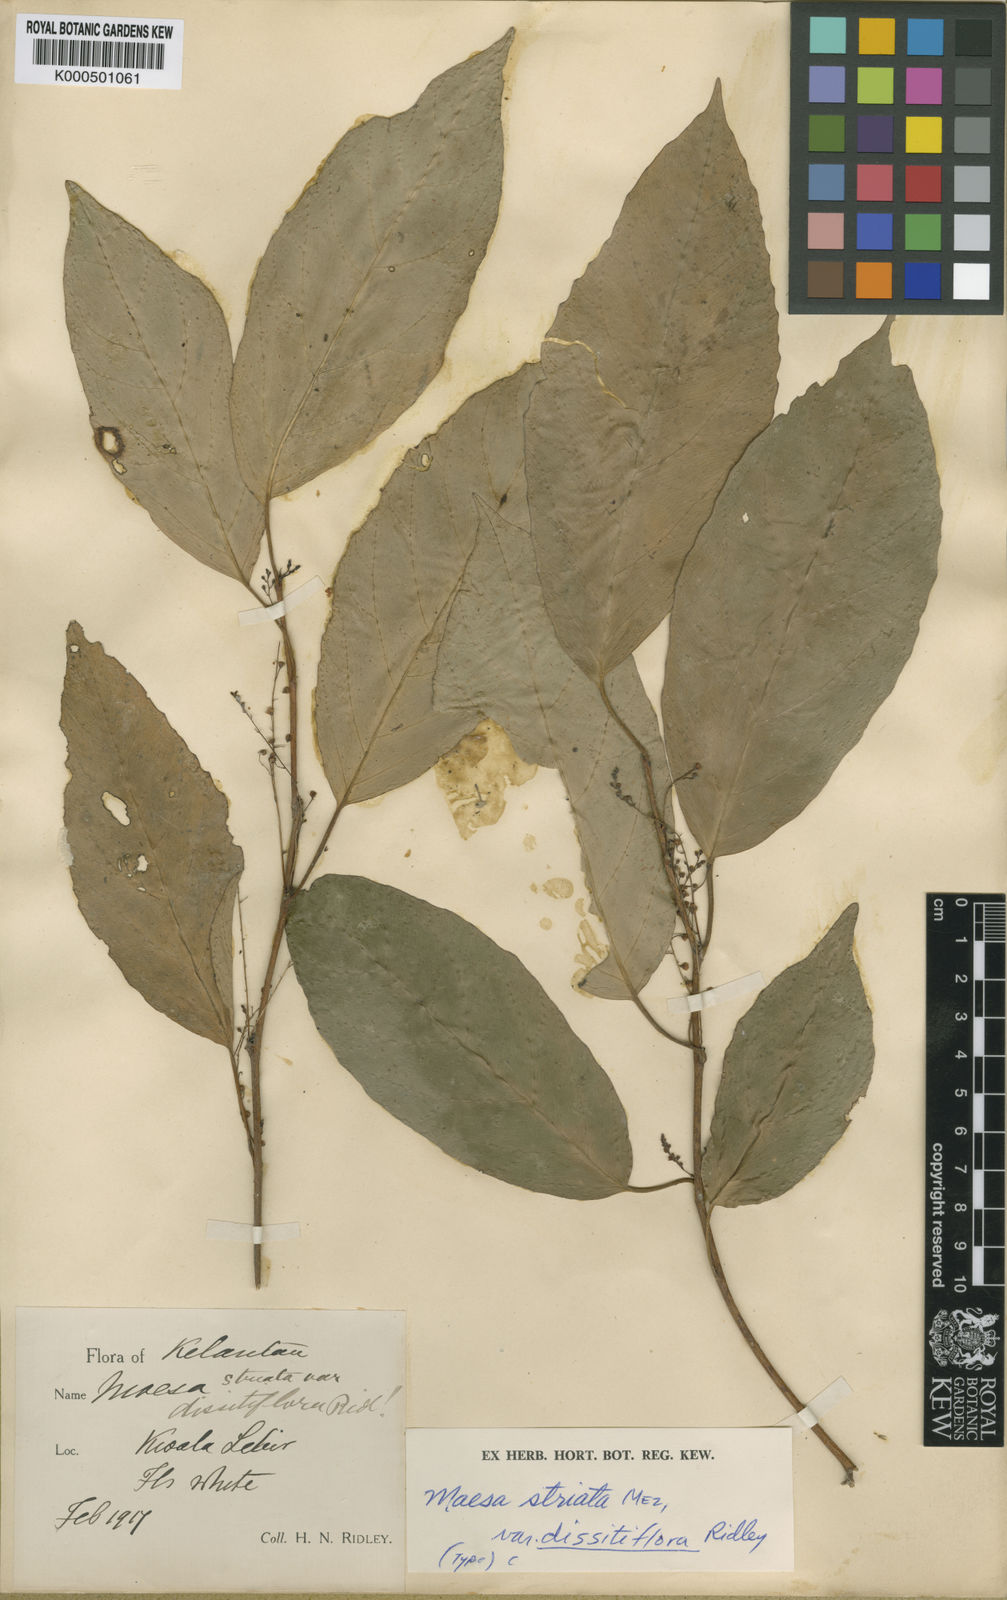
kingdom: Plantae
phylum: Tracheophyta
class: Magnoliopsida
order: Ericales
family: Primulaceae
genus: Maesa
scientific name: Maesa pahangiana
